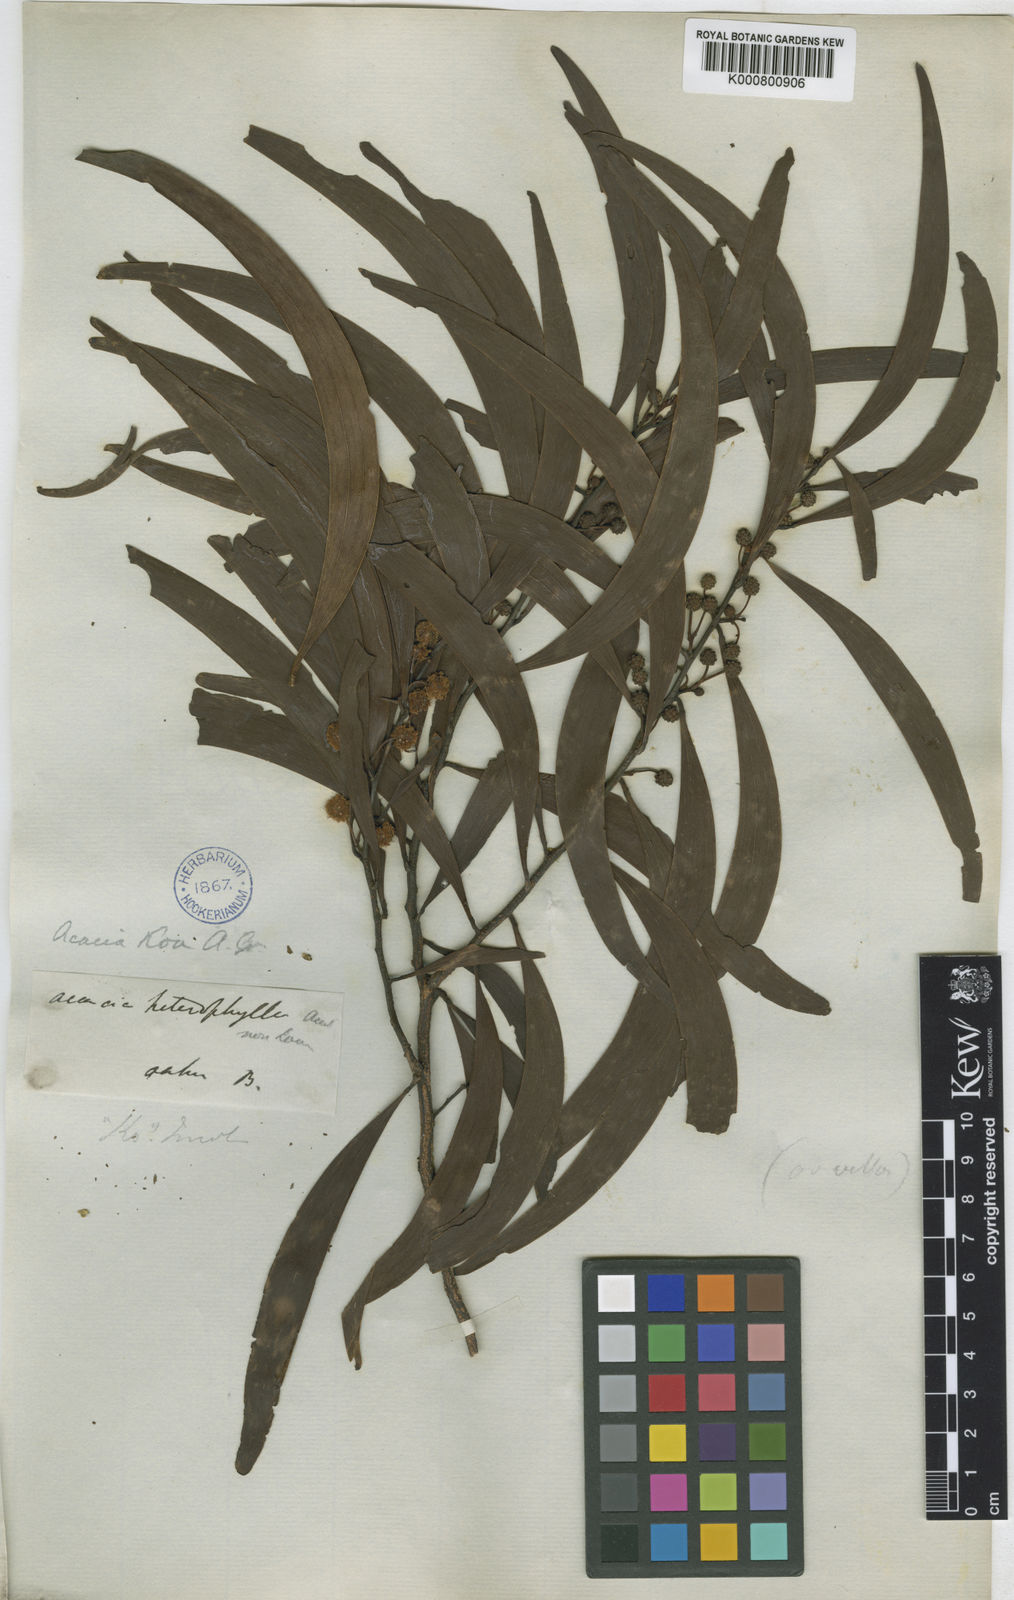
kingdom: Plantae
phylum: Tracheophyta
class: Magnoliopsida
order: Fabales
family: Fabaceae
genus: Acacia
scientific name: Acacia koa
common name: Gray koa
